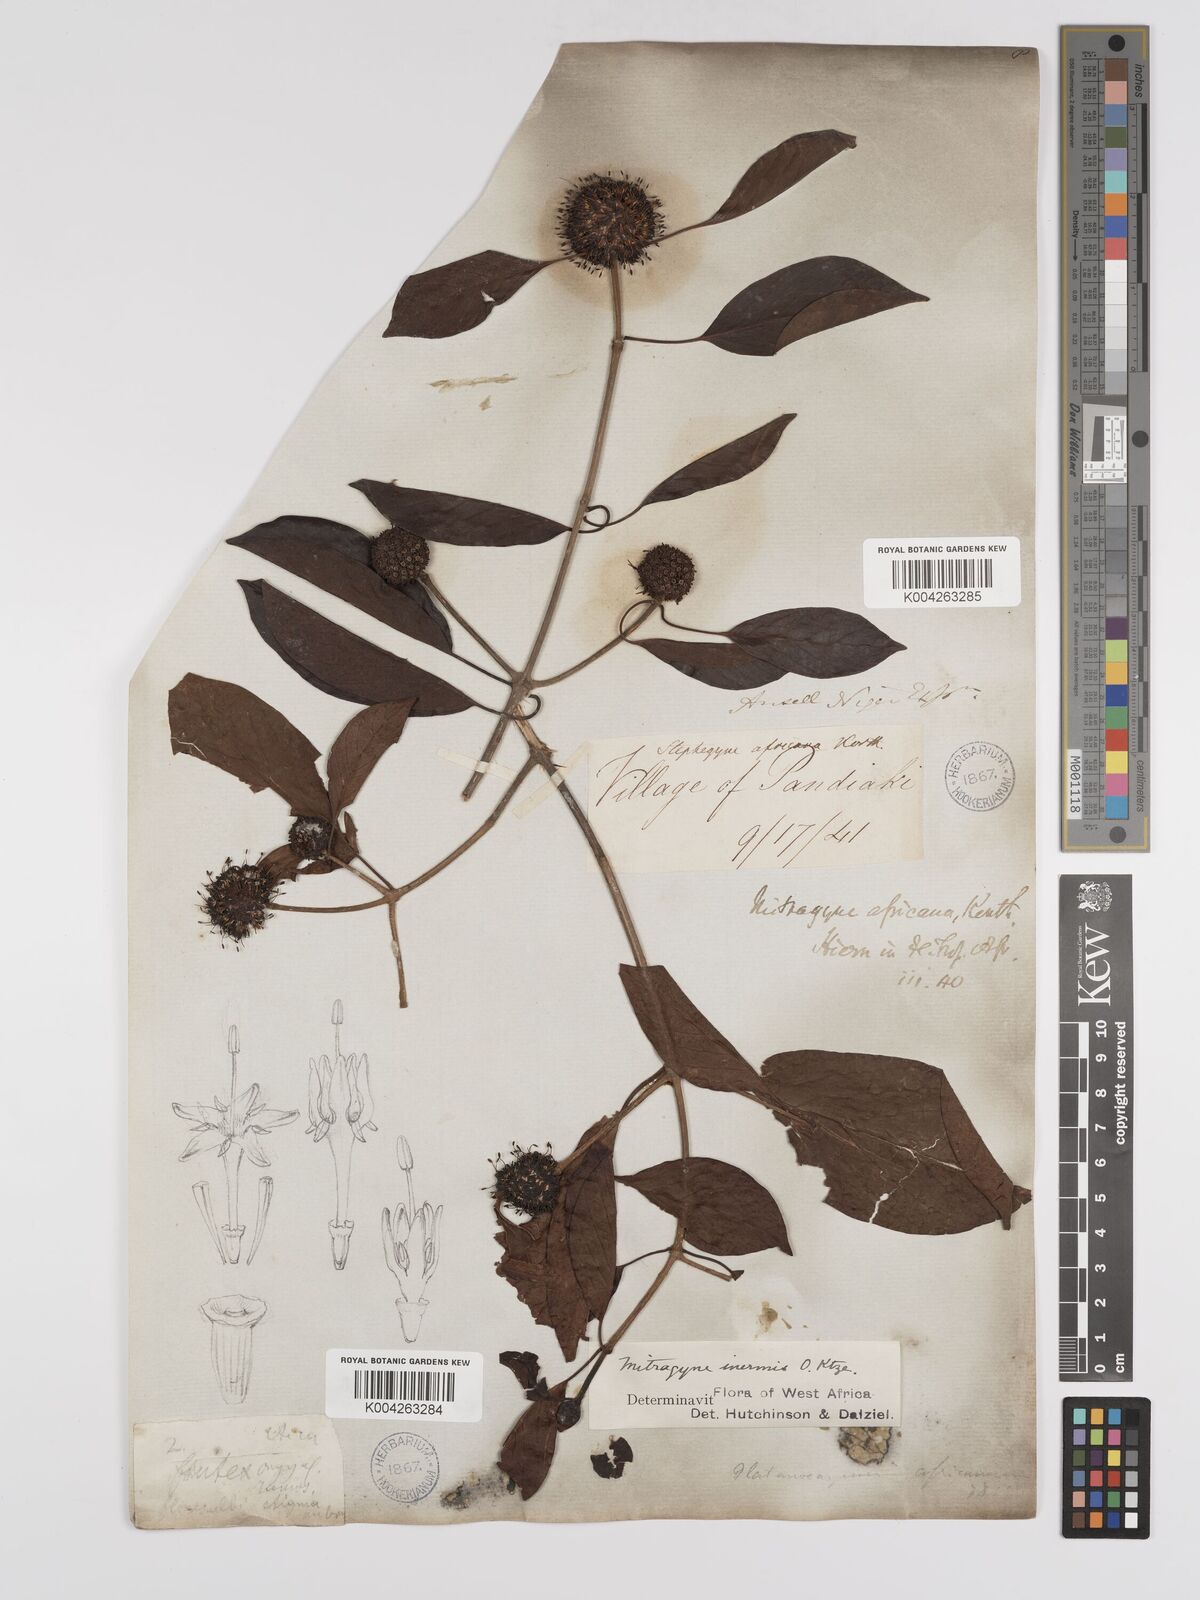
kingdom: Plantae
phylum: Tracheophyta
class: Magnoliopsida
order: Gentianales
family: Rubiaceae
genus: Mitragyna
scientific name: Mitragyna inermis
